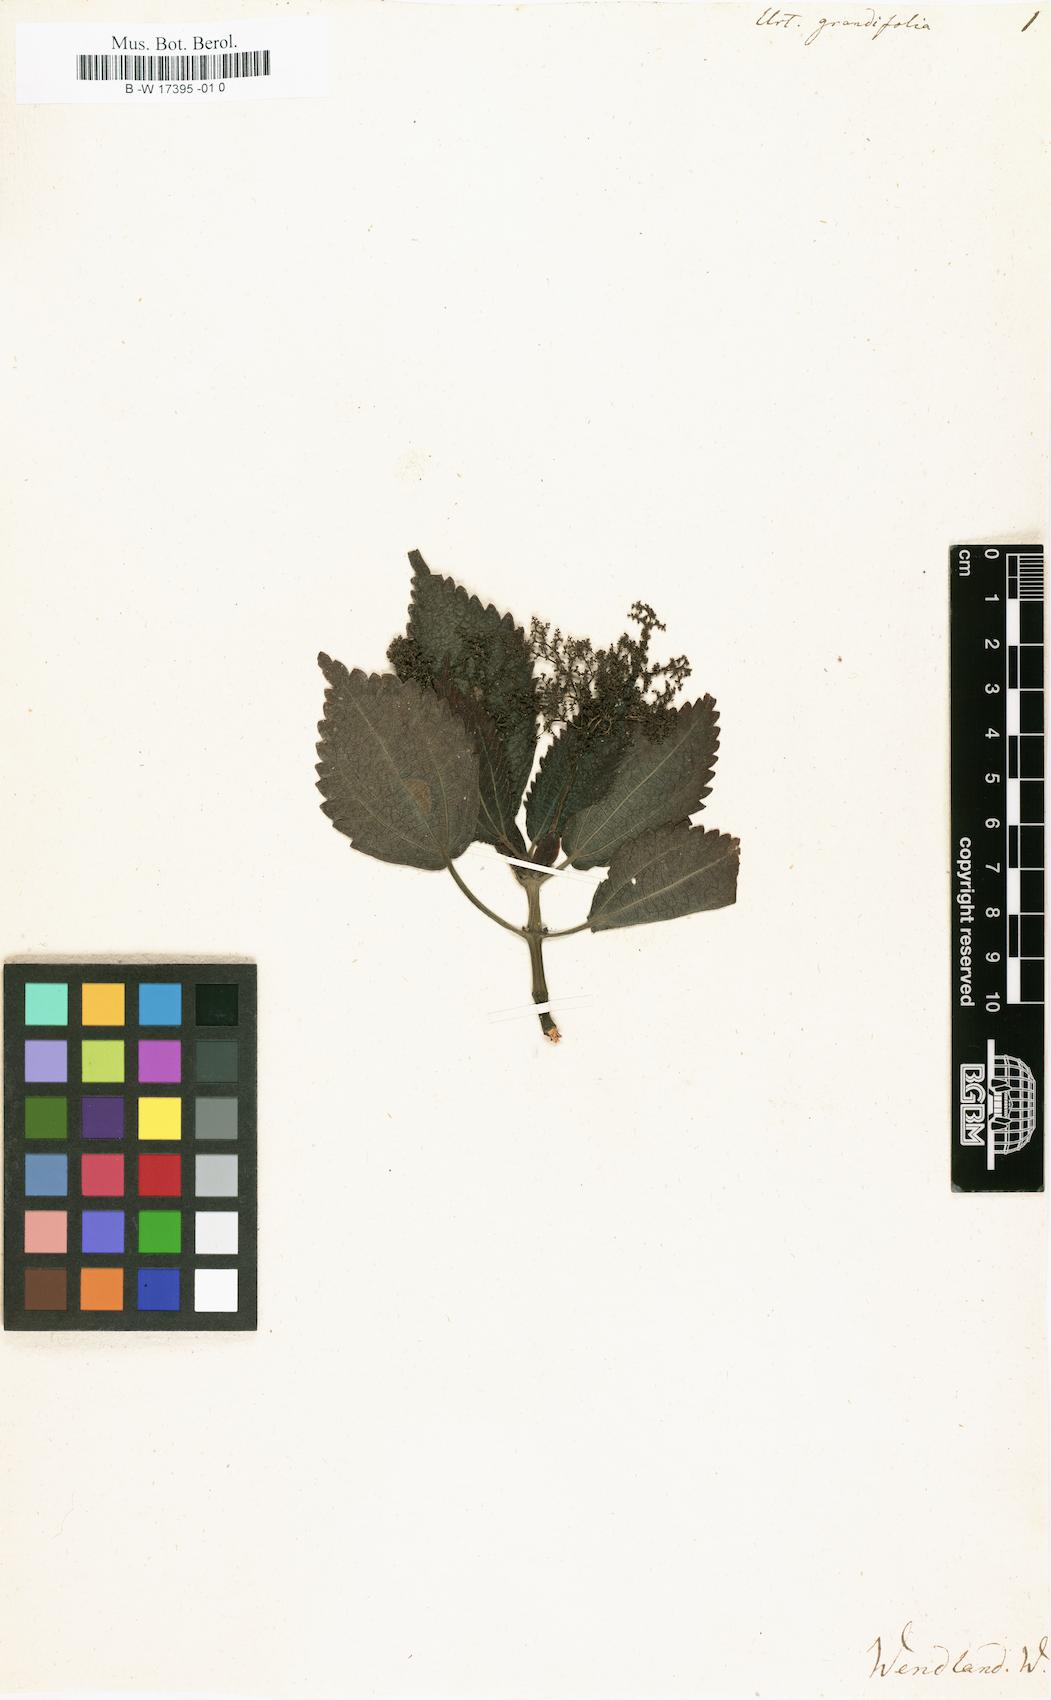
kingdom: Plantae
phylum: Tracheophyta
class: Magnoliopsida
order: Rosales
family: Urticaceae
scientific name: Urticaceae
